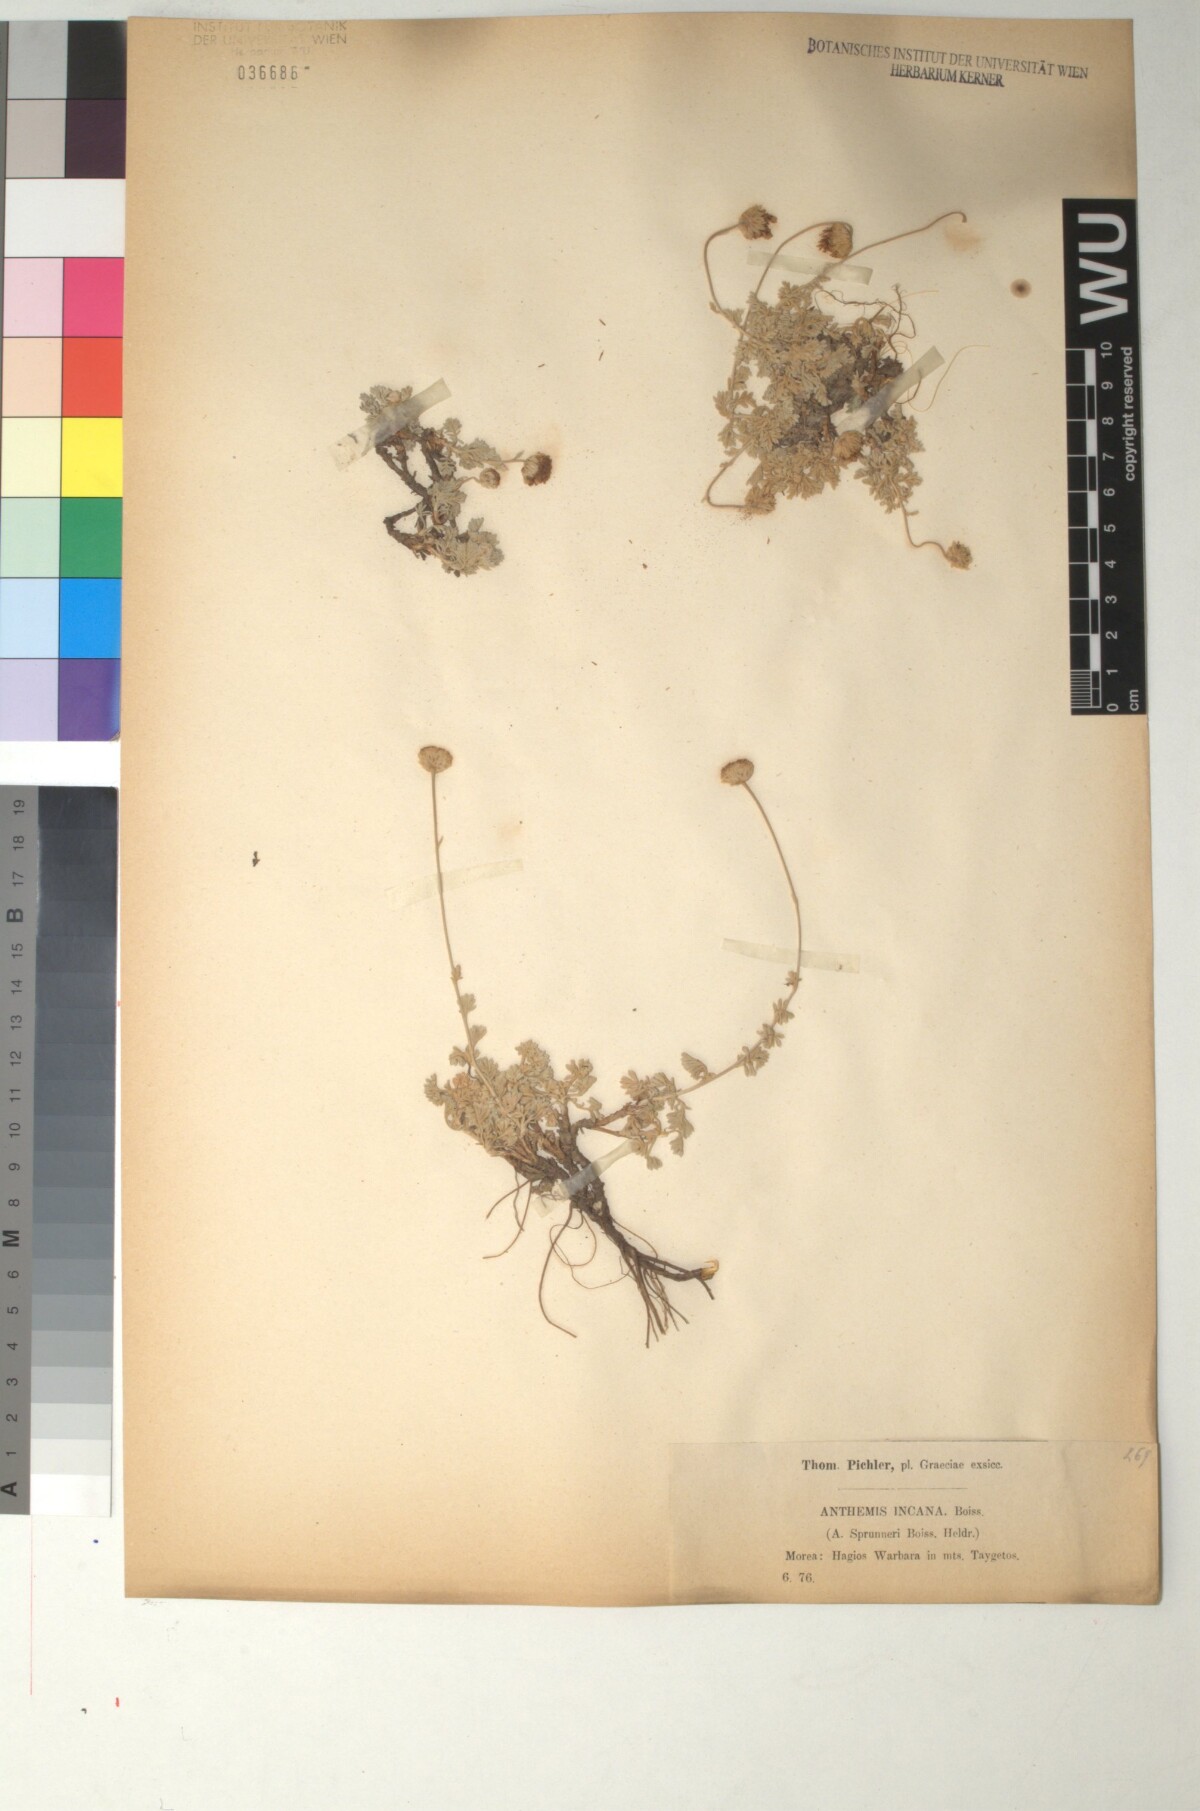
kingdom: Plantae
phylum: Tracheophyta
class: Magnoliopsida
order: Asterales
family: Asteraceae
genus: Anthemis
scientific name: Anthemis spruneri
